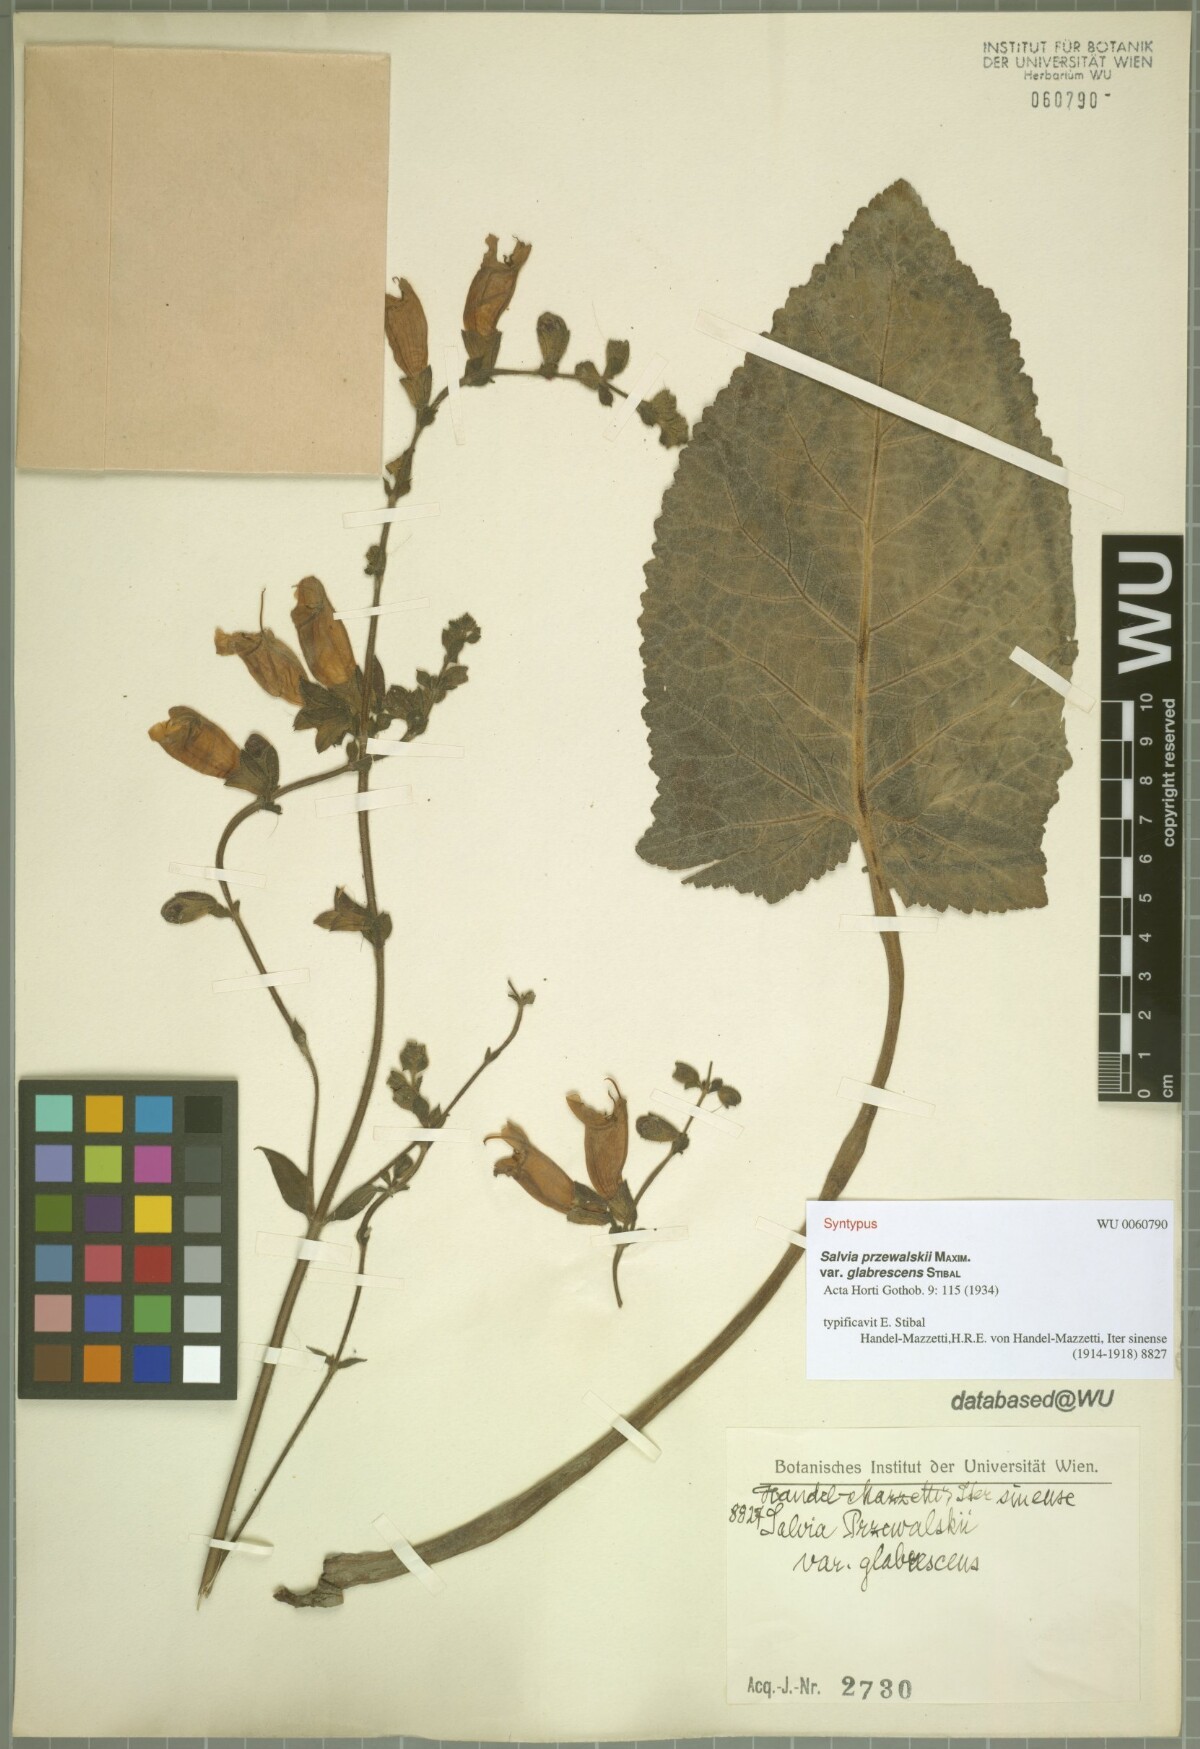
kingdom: Plantae
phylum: Tracheophyta
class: Magnoliopsida
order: Lamiales
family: Lamiaceae
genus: Salvia
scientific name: Salvia przewalskii
